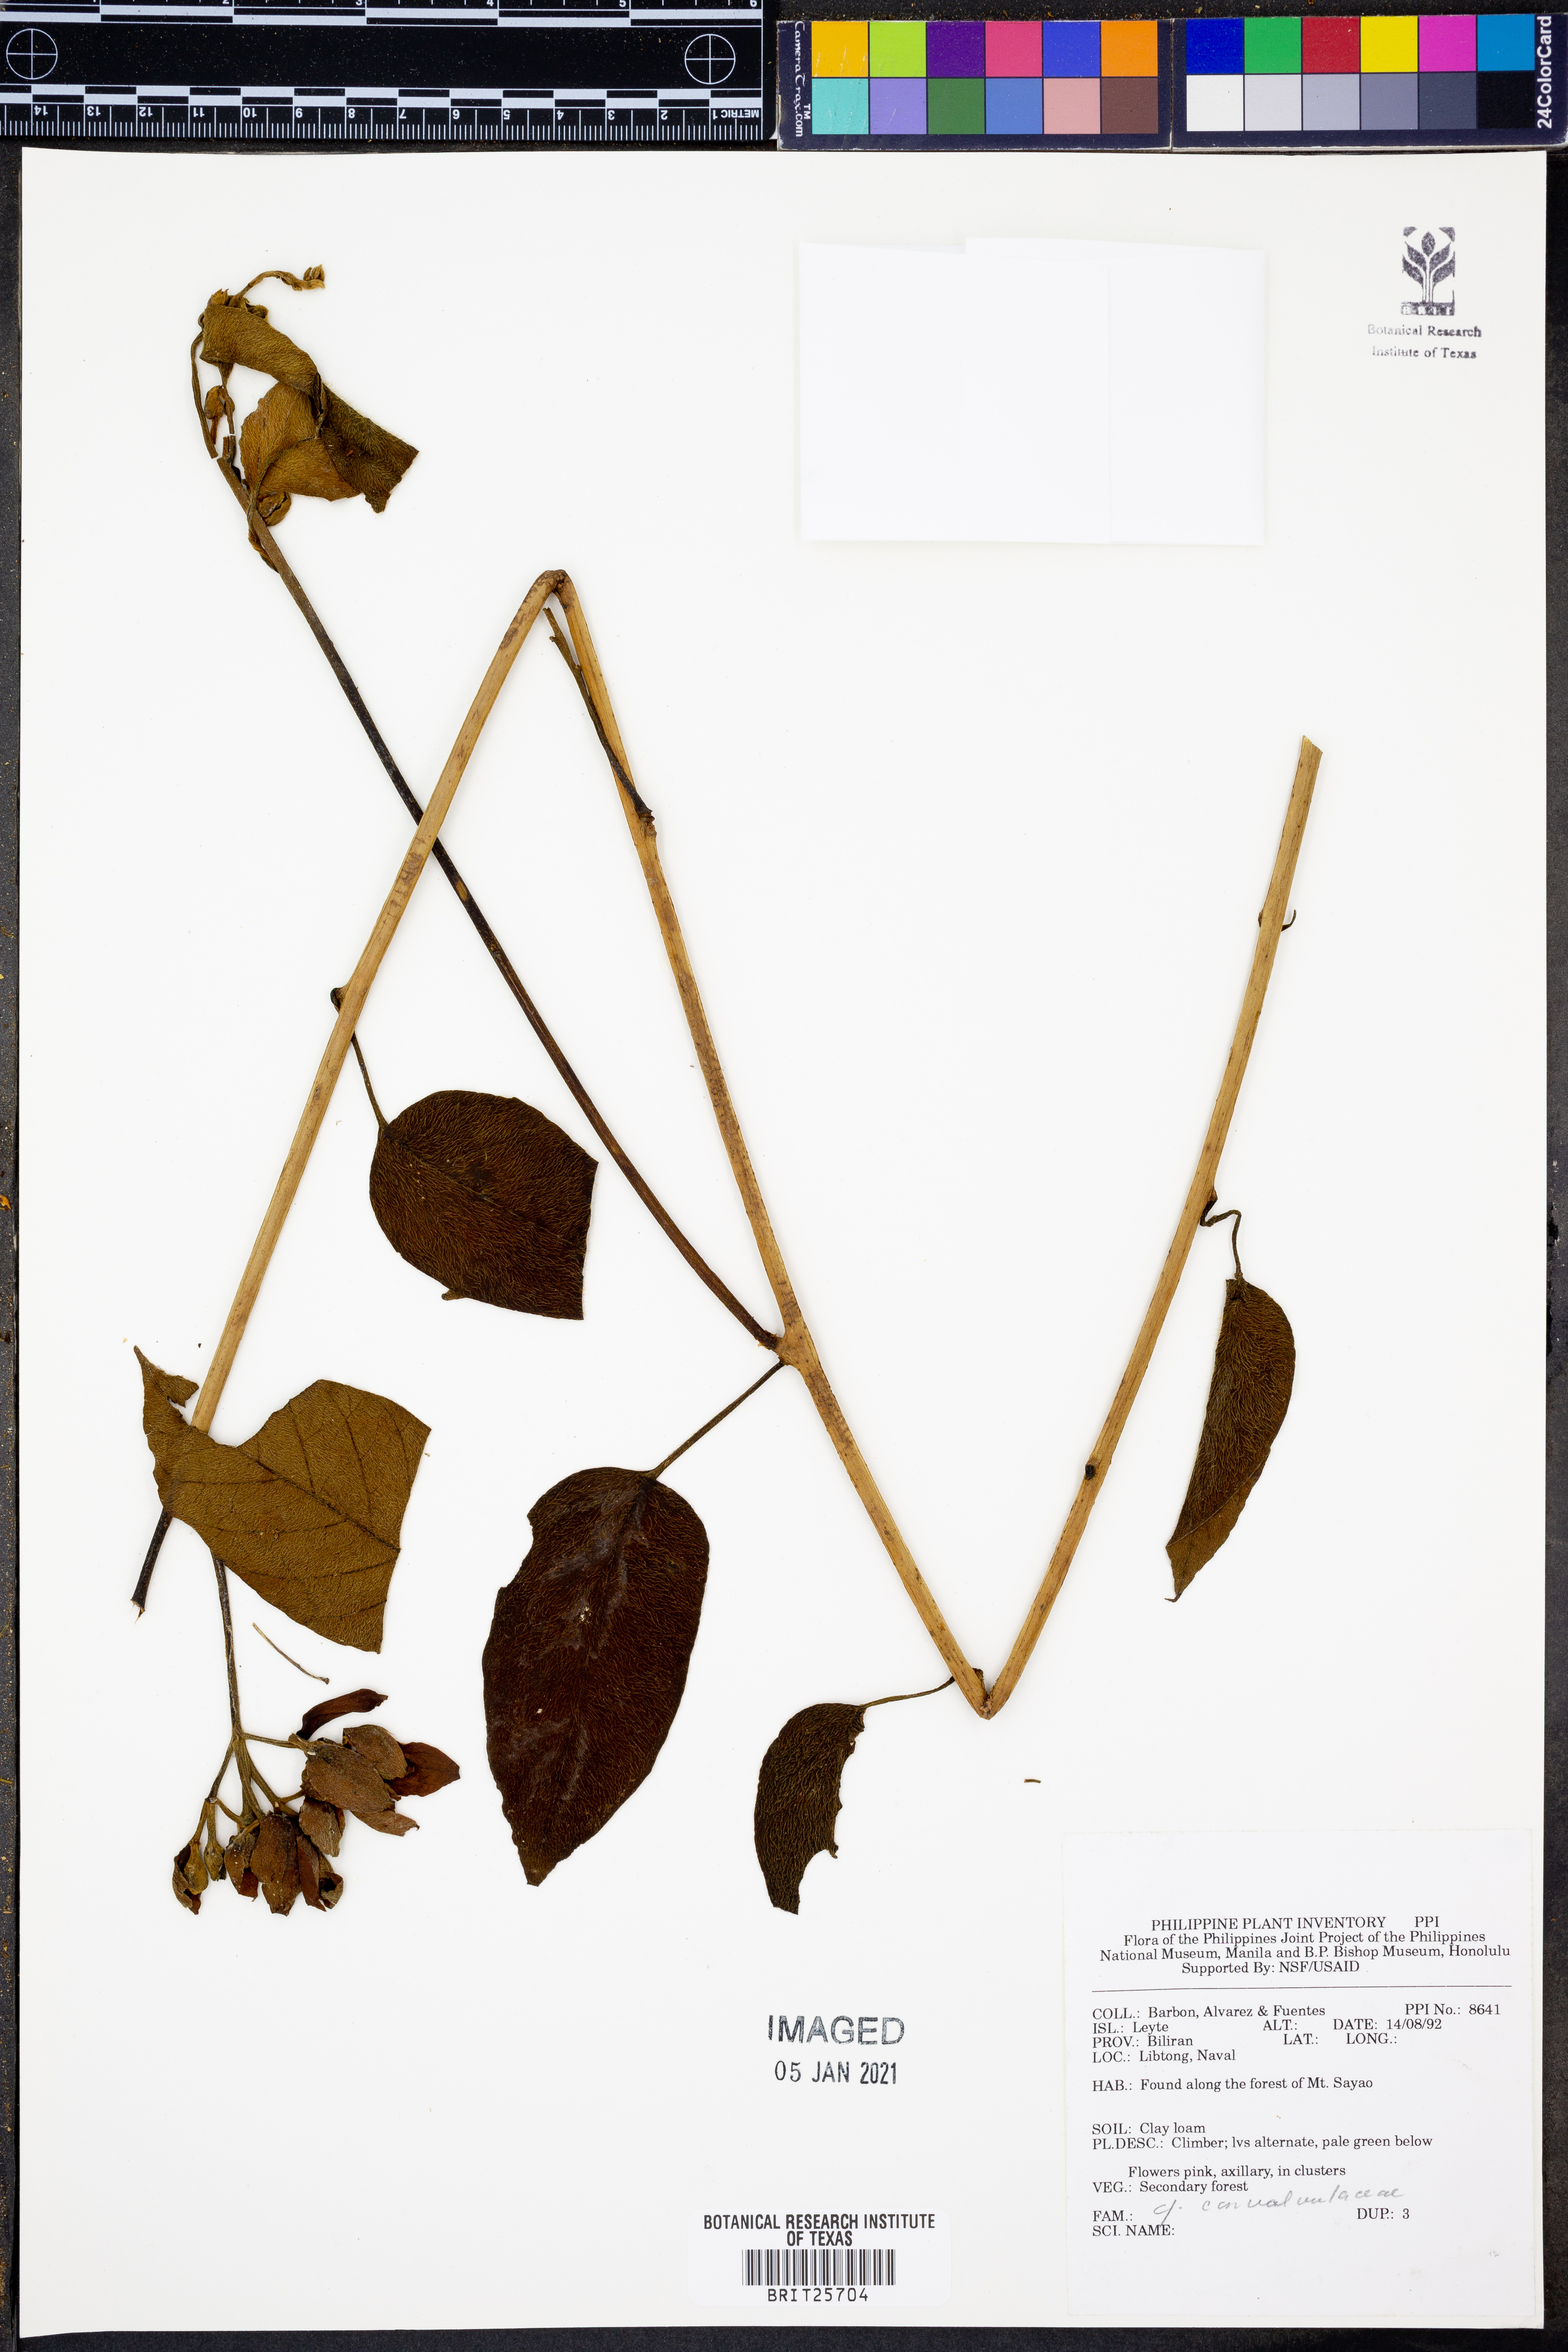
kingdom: Plantae
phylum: Tracheophyta
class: Magnoliopsida
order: Solanales
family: Convolvulaceae
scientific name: Convolvulaceae
